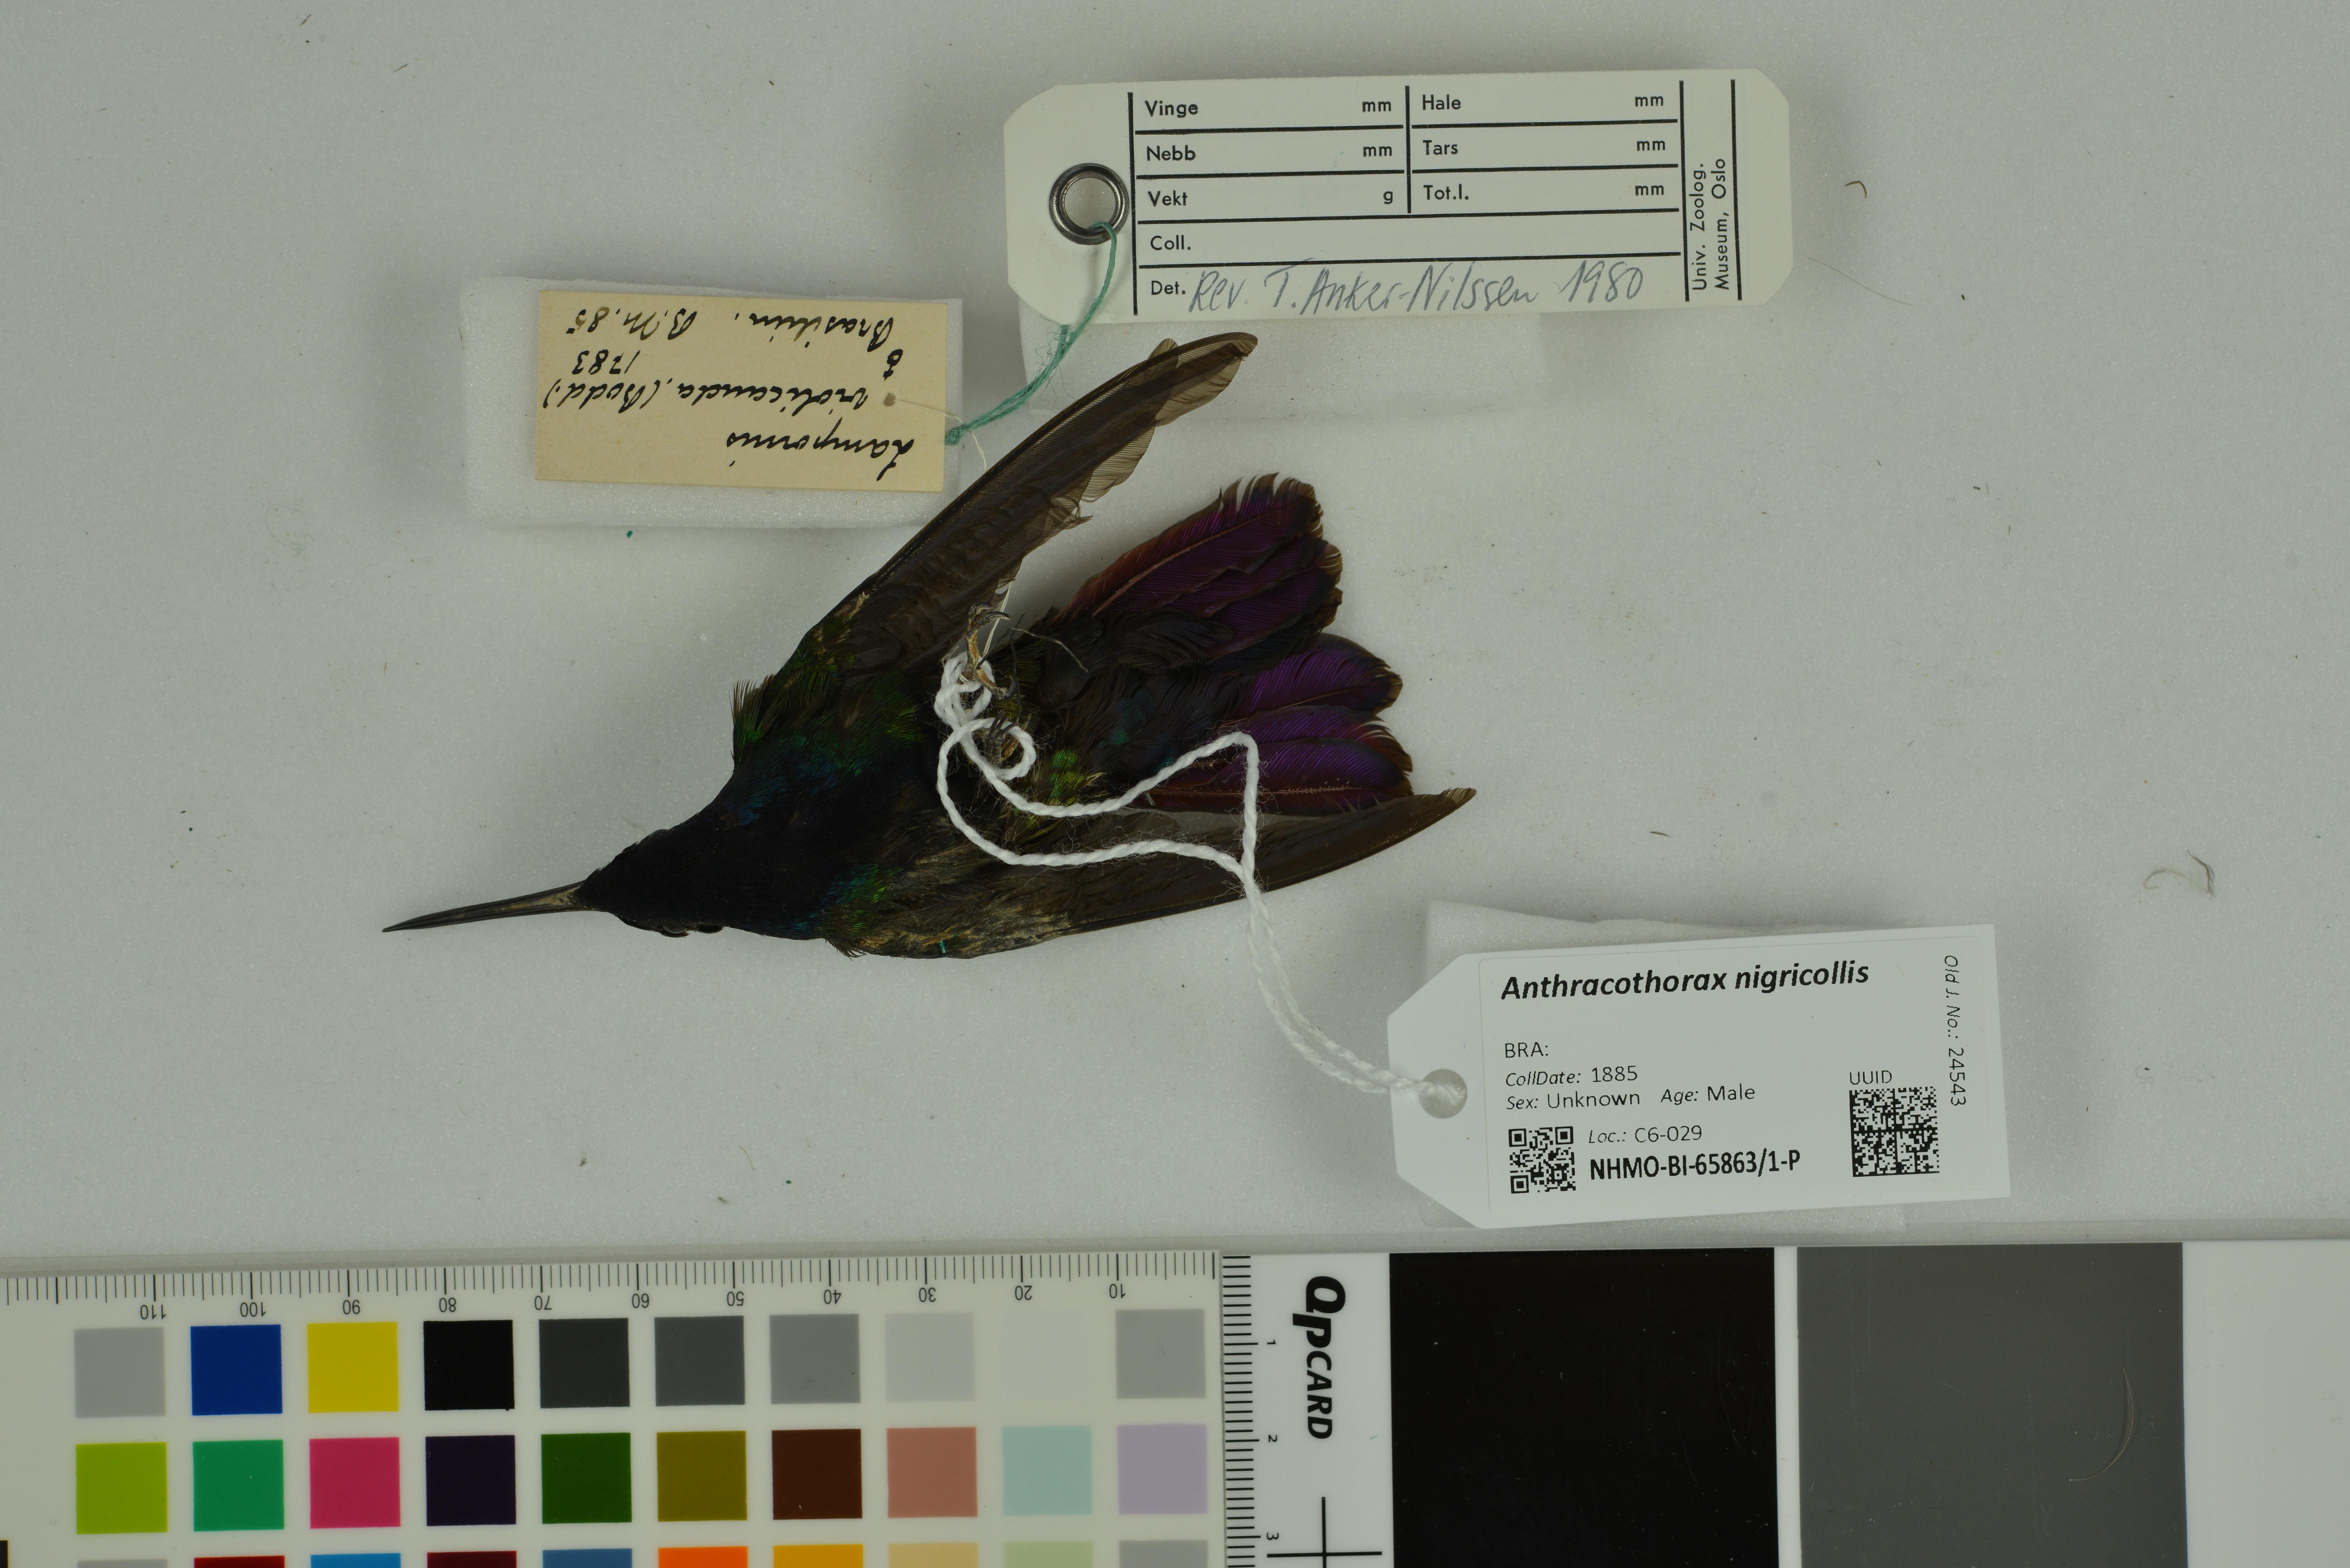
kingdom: Animalia
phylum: Chordata
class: Aves
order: Apodiformes
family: Trochilidae
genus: Anthracothorax
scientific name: Anthracothorax nigricollis
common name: Black-throated mango
